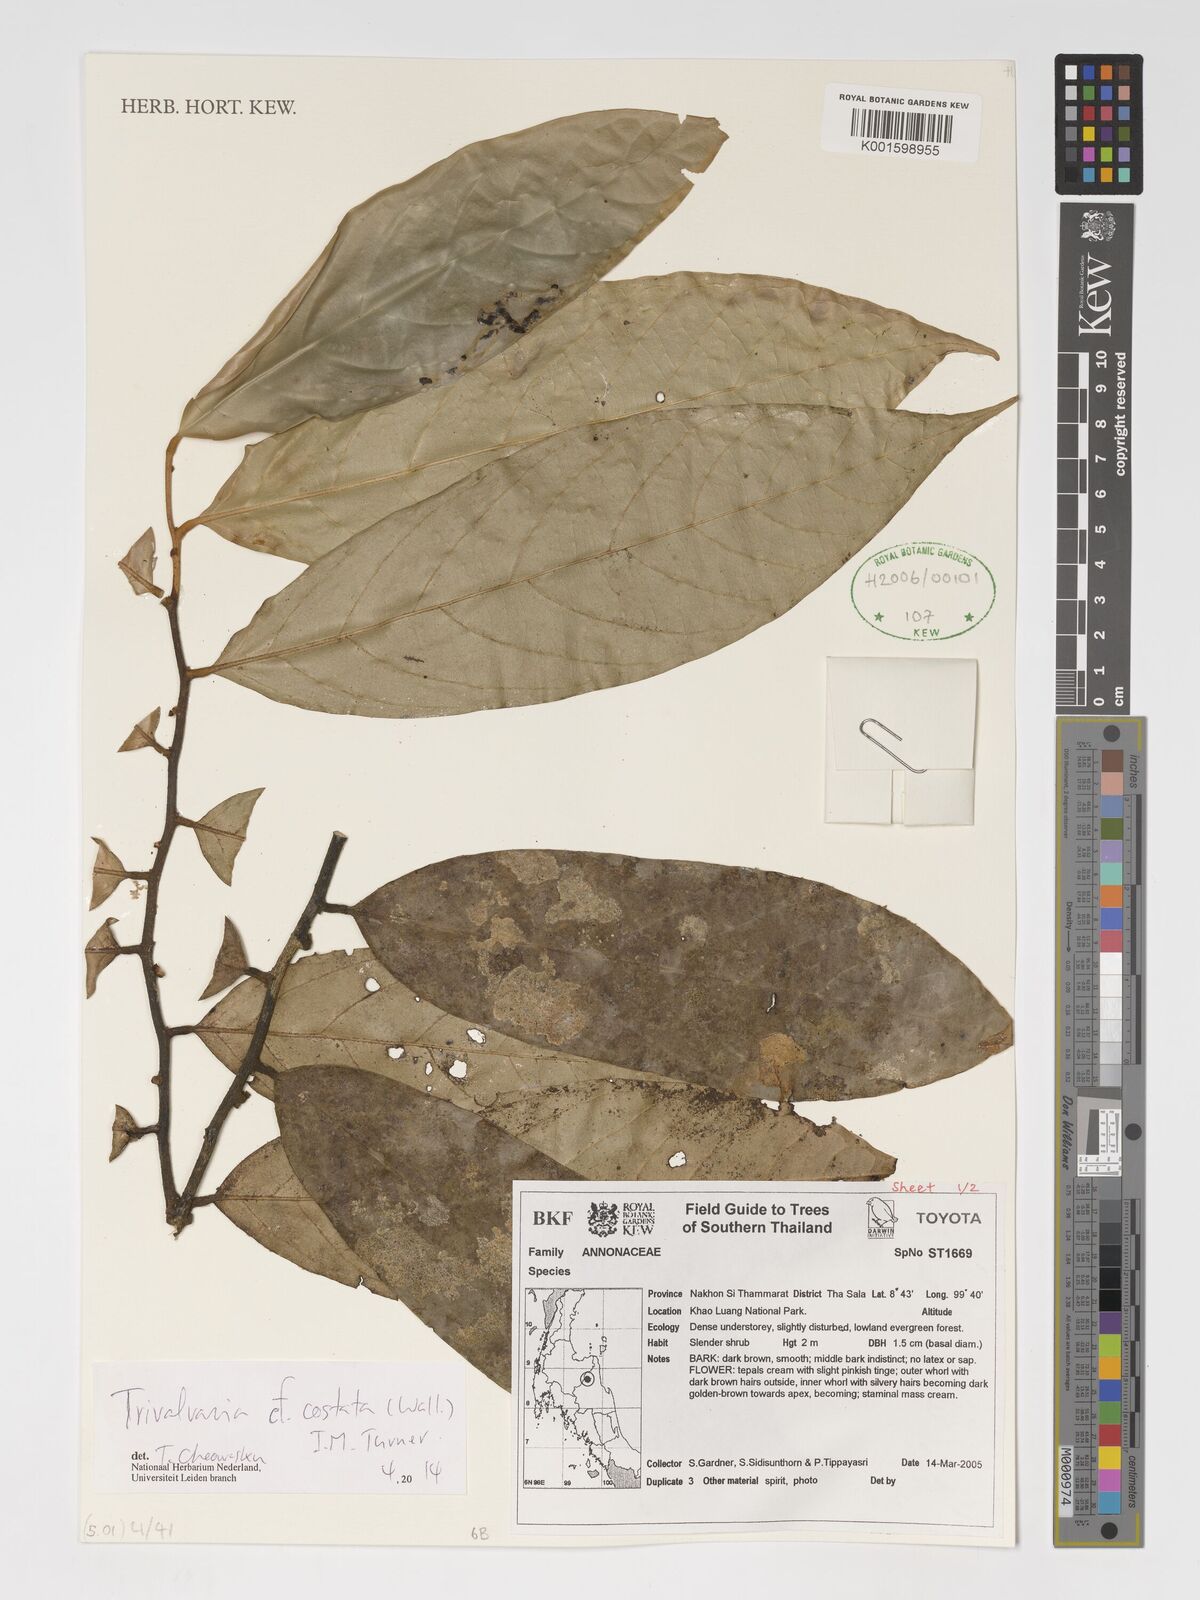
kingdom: Plantae
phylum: Tracheophyta
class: Magnoliopsida
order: Magnoliales
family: Annonaceae
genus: Trivalvaria
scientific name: Trivalvaria costata
